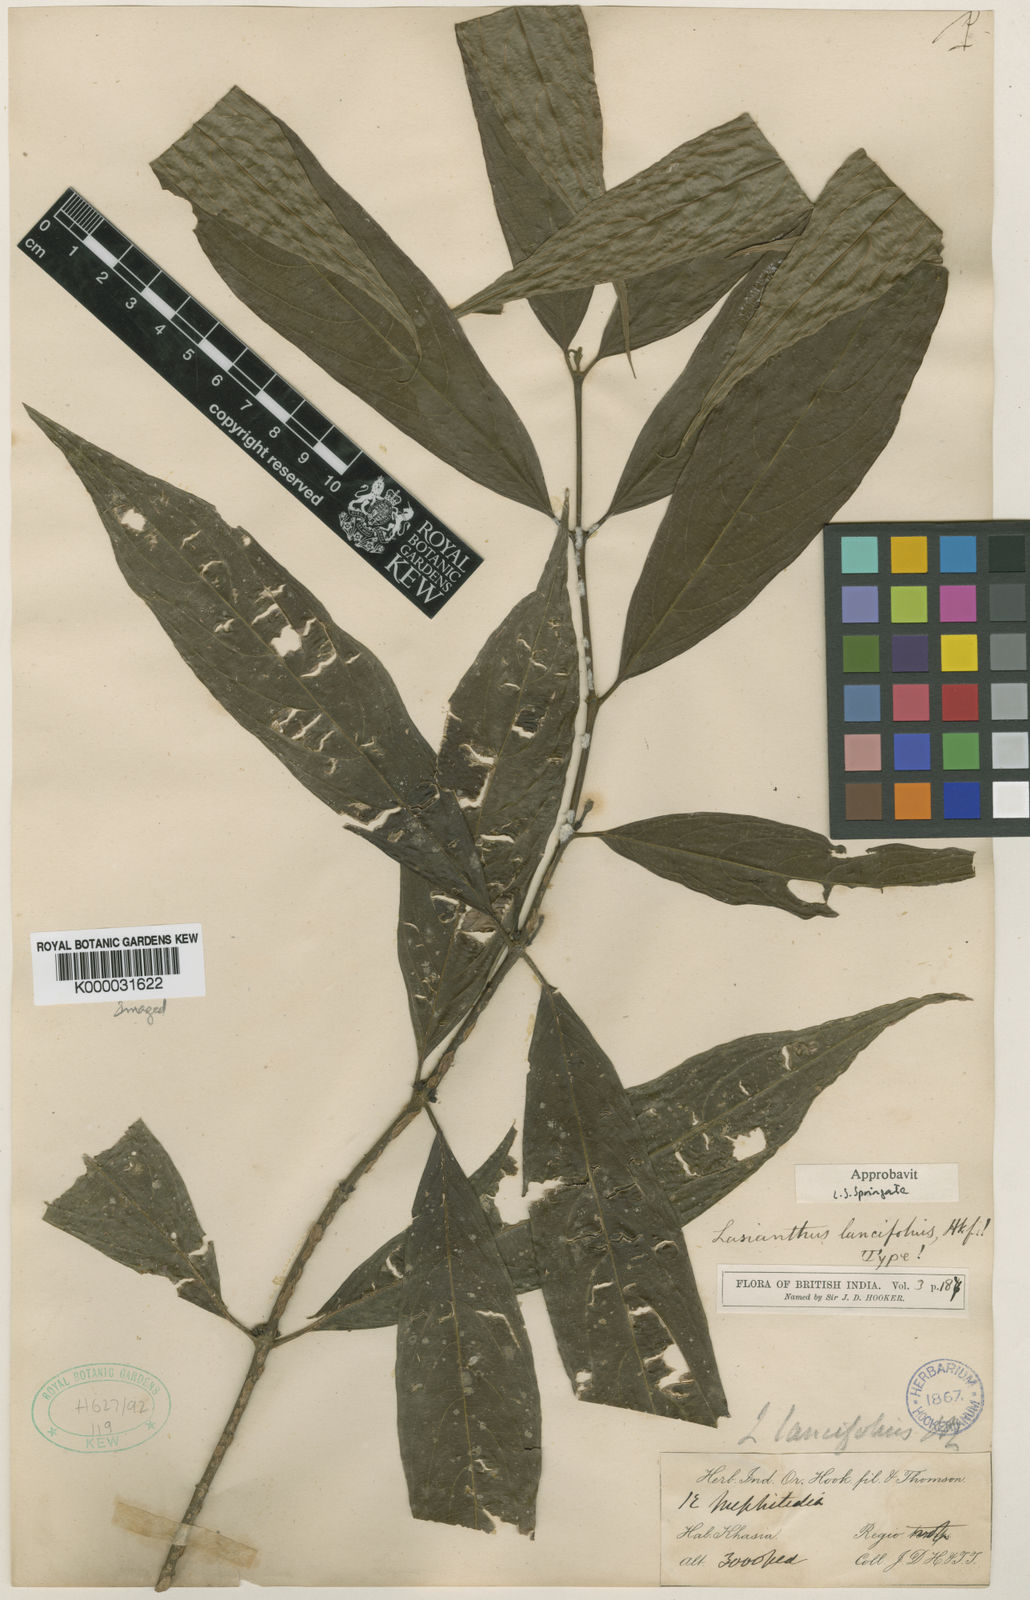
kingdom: Plantae
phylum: Tracheophyta
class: Magnoliopsida
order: Gentianales
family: Rubiaceae
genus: Lasianthus
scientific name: Lasianthus lancifolius
